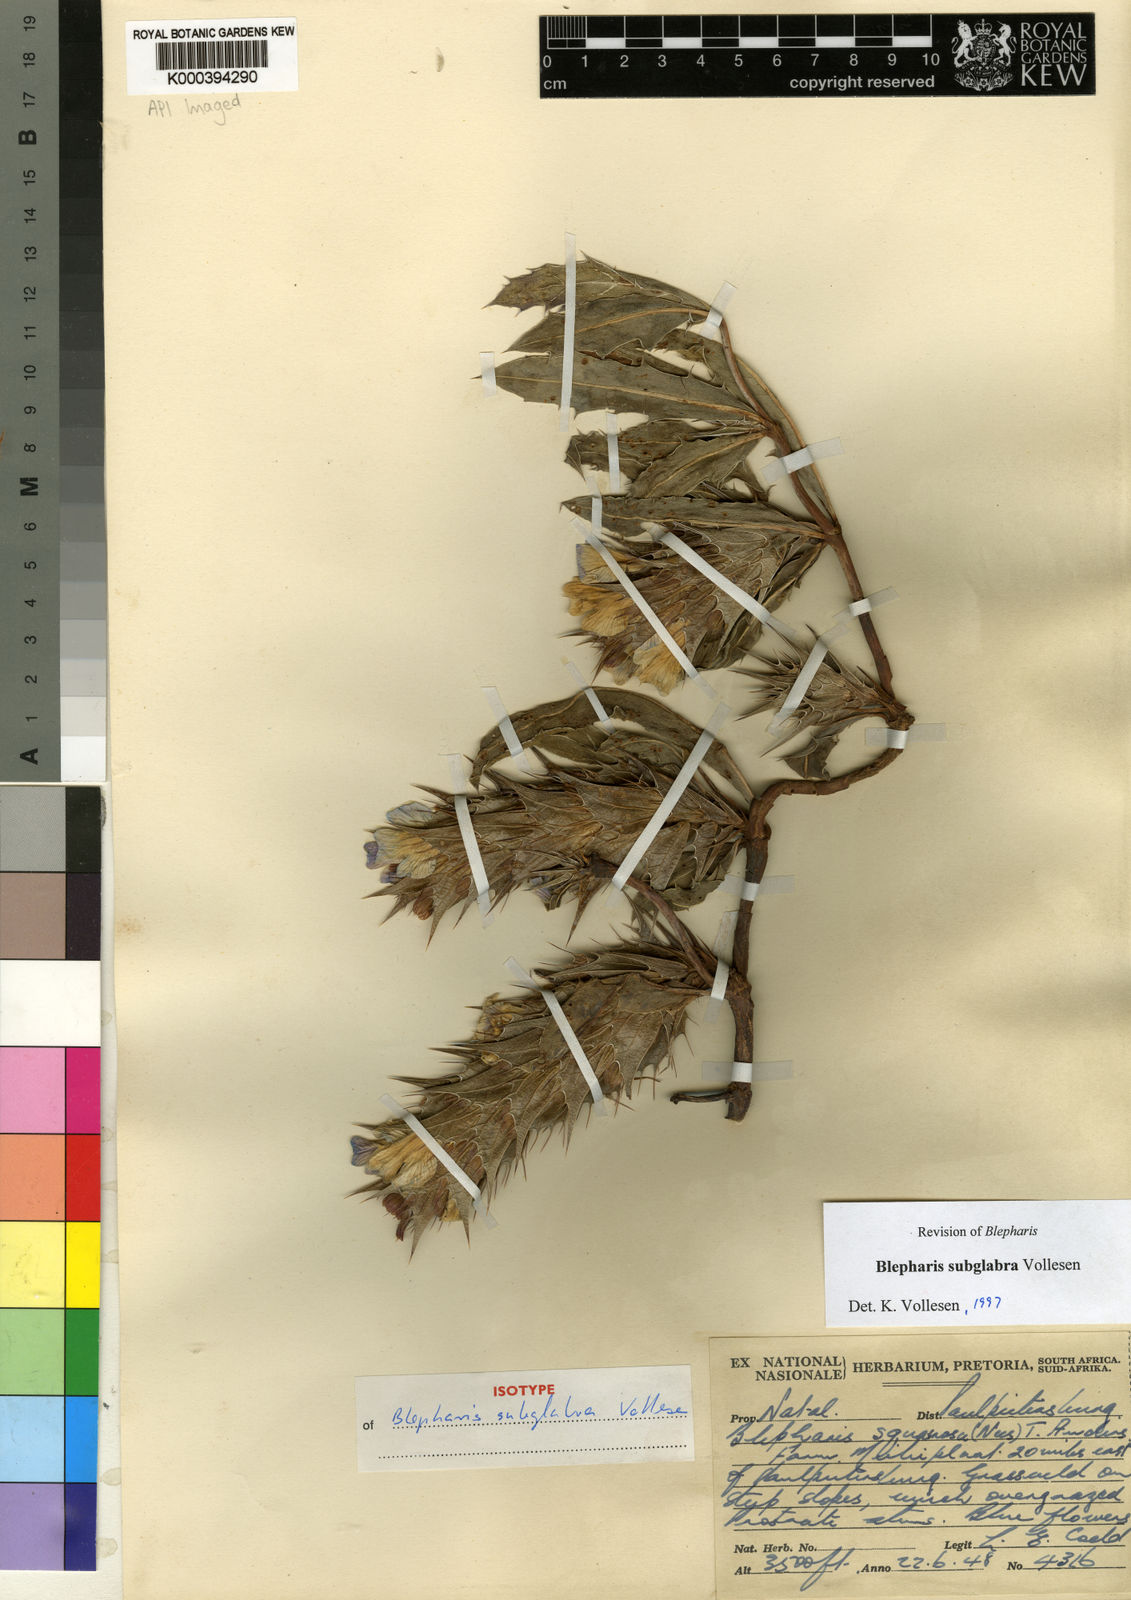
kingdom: Plantae
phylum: Tracheophyta
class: Magnoliopsida
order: Lamiales
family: Acanthaceae
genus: Blepharis
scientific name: Blepharis subglabra
